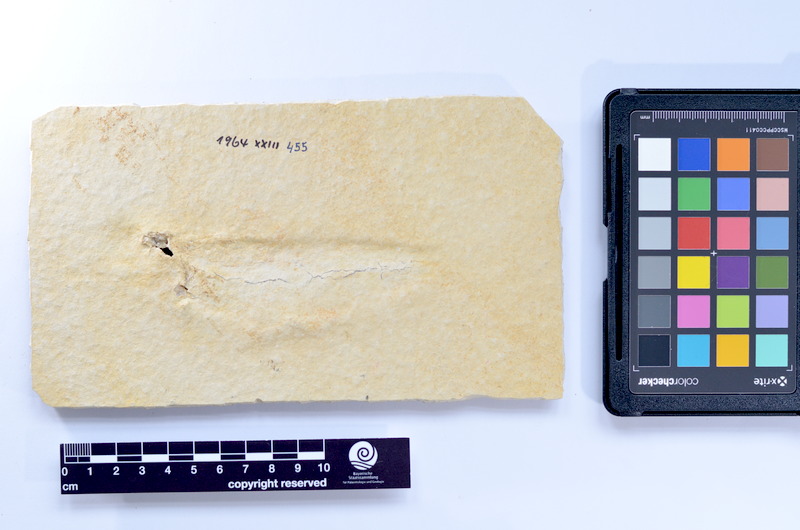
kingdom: Animalia
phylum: Chordata
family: Ascalaboidae
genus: Tharsis
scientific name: Tharsis dubius
